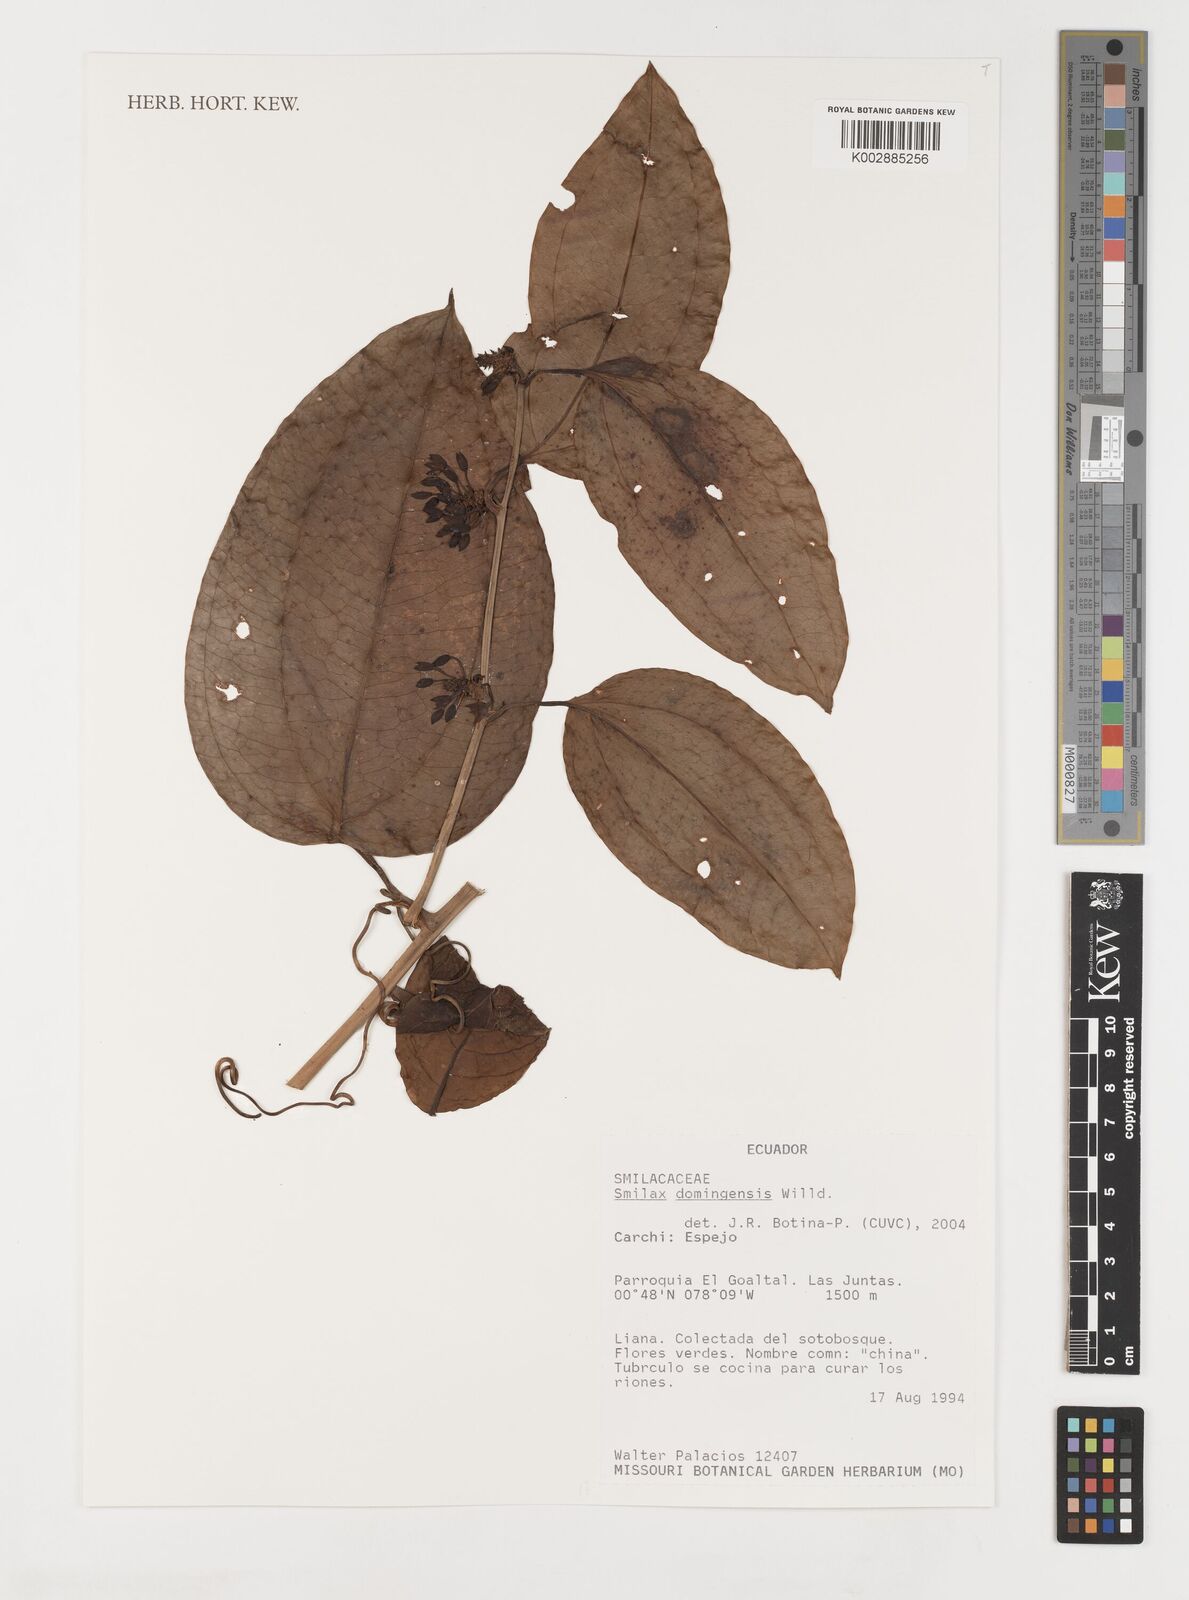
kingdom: Plantae
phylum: Tracheophyta
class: Liliopsida
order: Liliales
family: Smilacaceae
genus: Smilax
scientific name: Smilax domingensis
